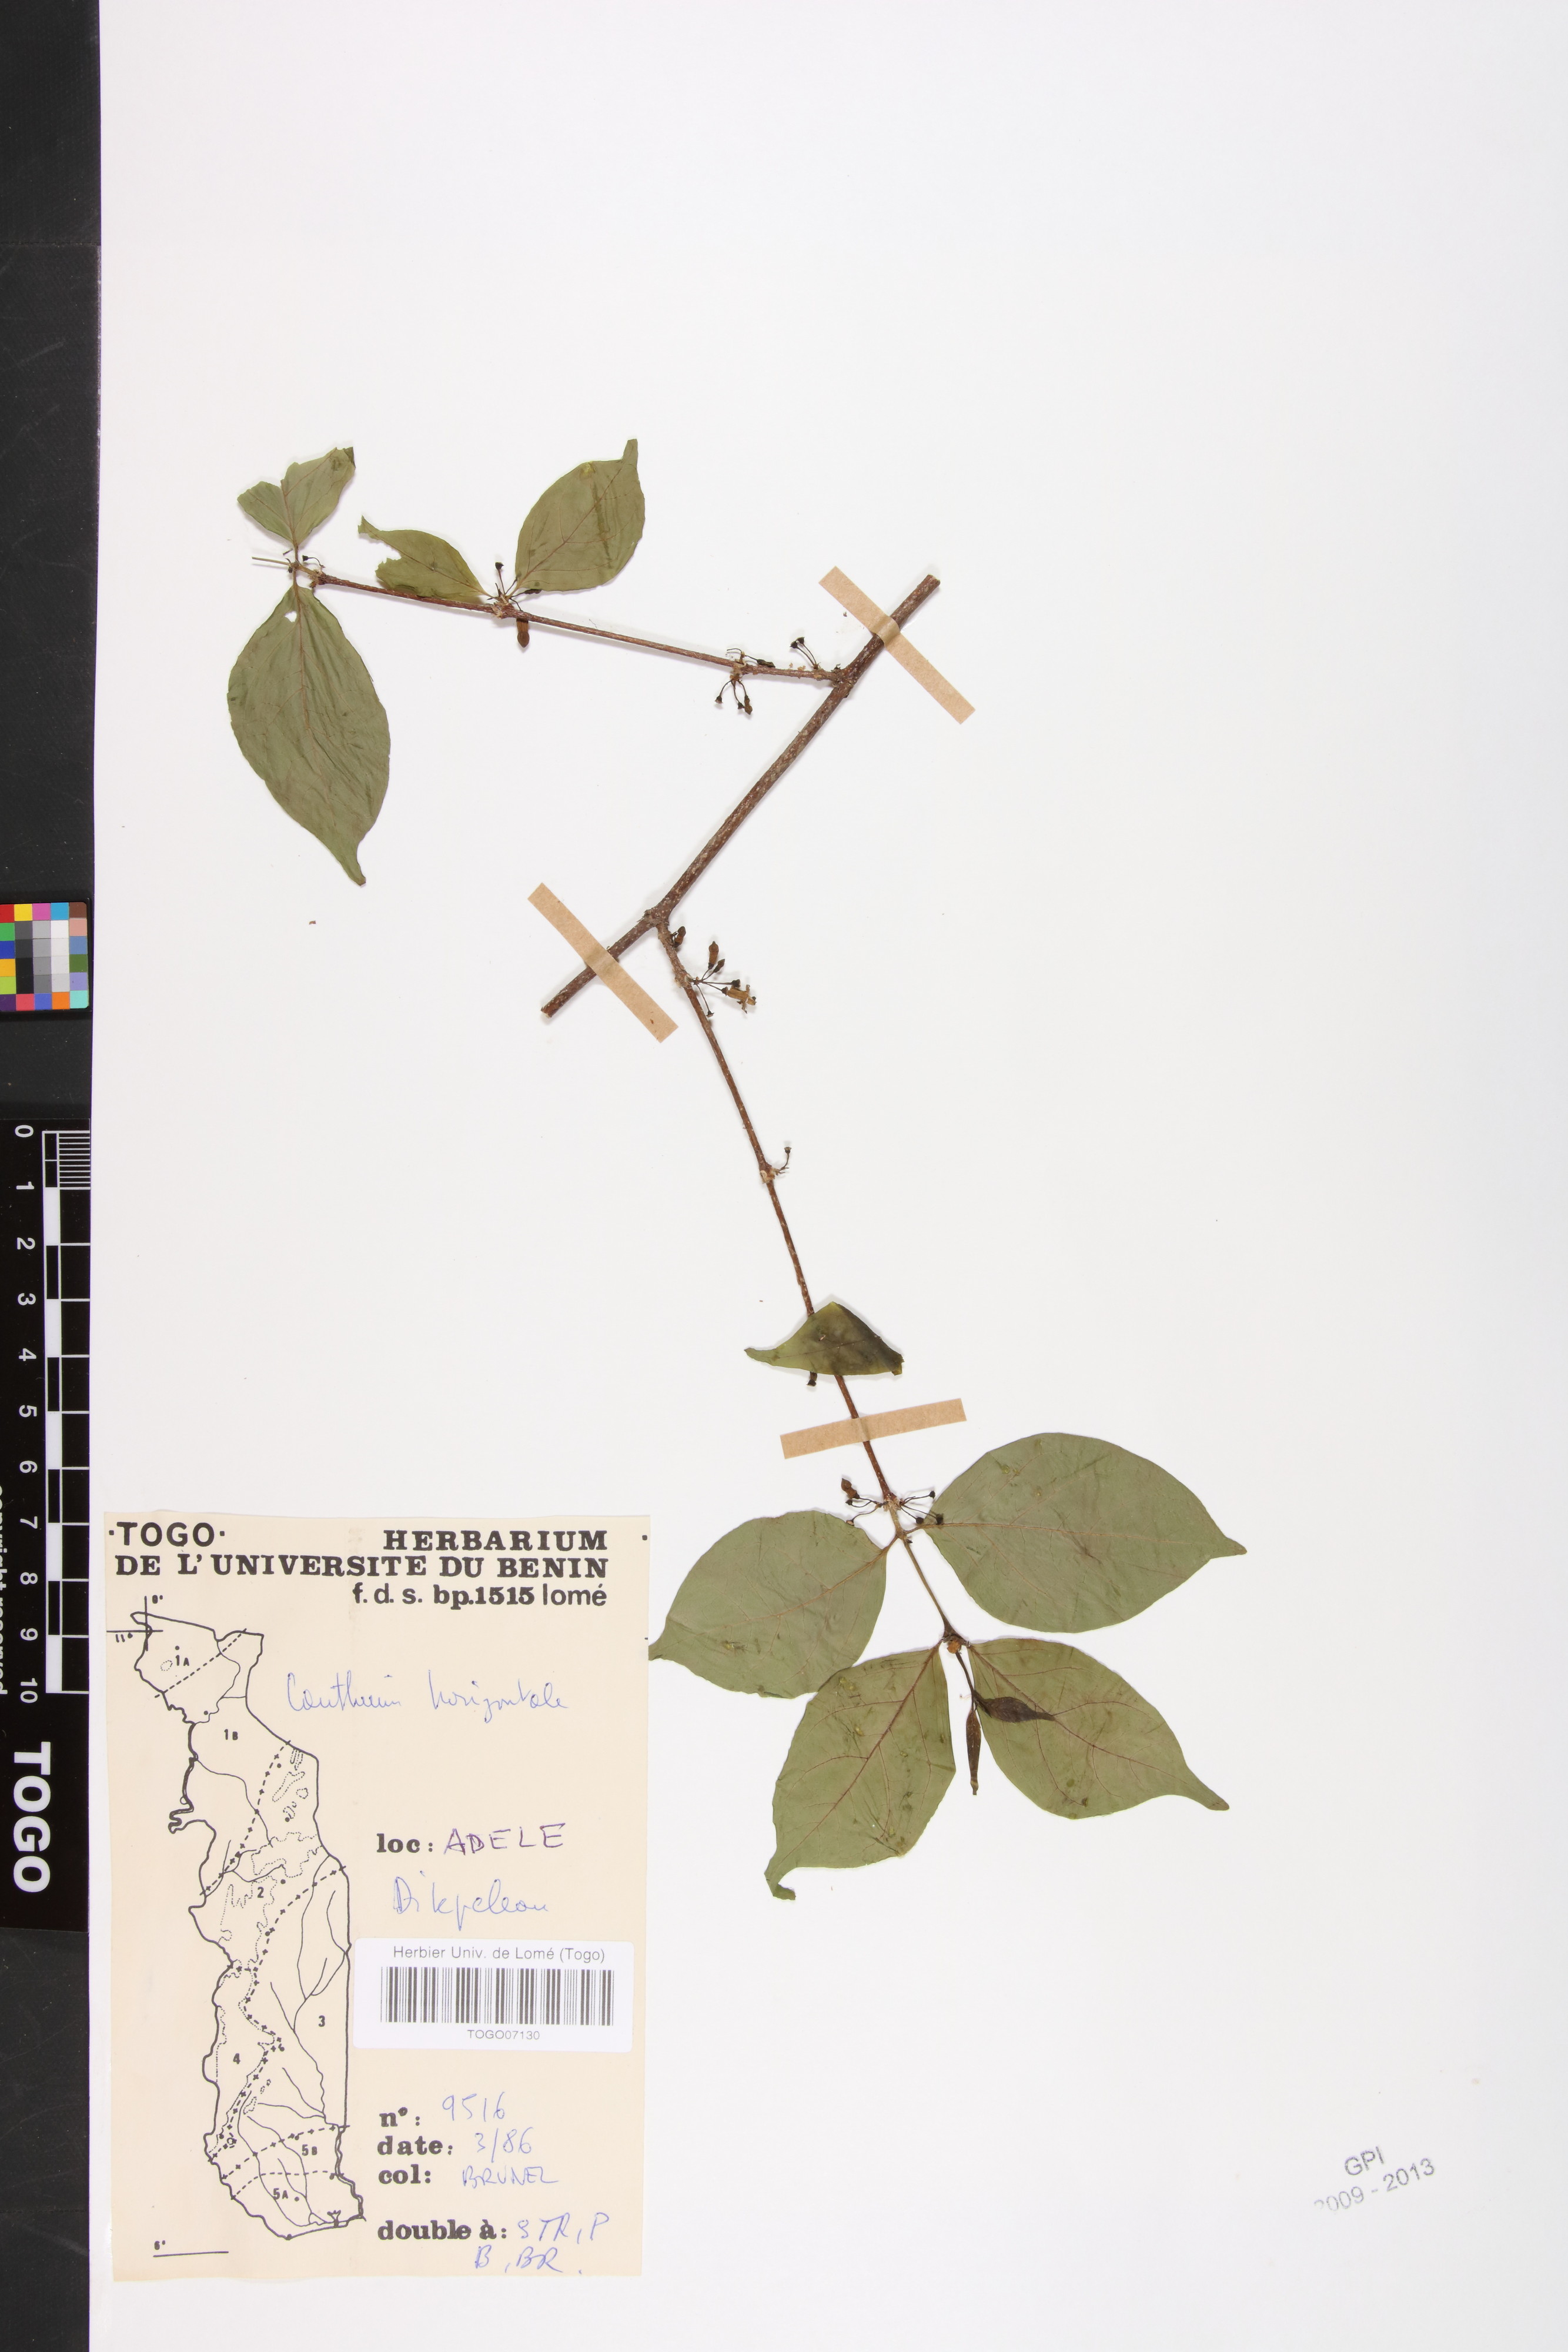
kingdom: Plantae
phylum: Tracheophyta
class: Magnoliopsida
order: Gentianales
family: Rubiaceae
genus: Psydrax
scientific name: Psydrax horizontalis
